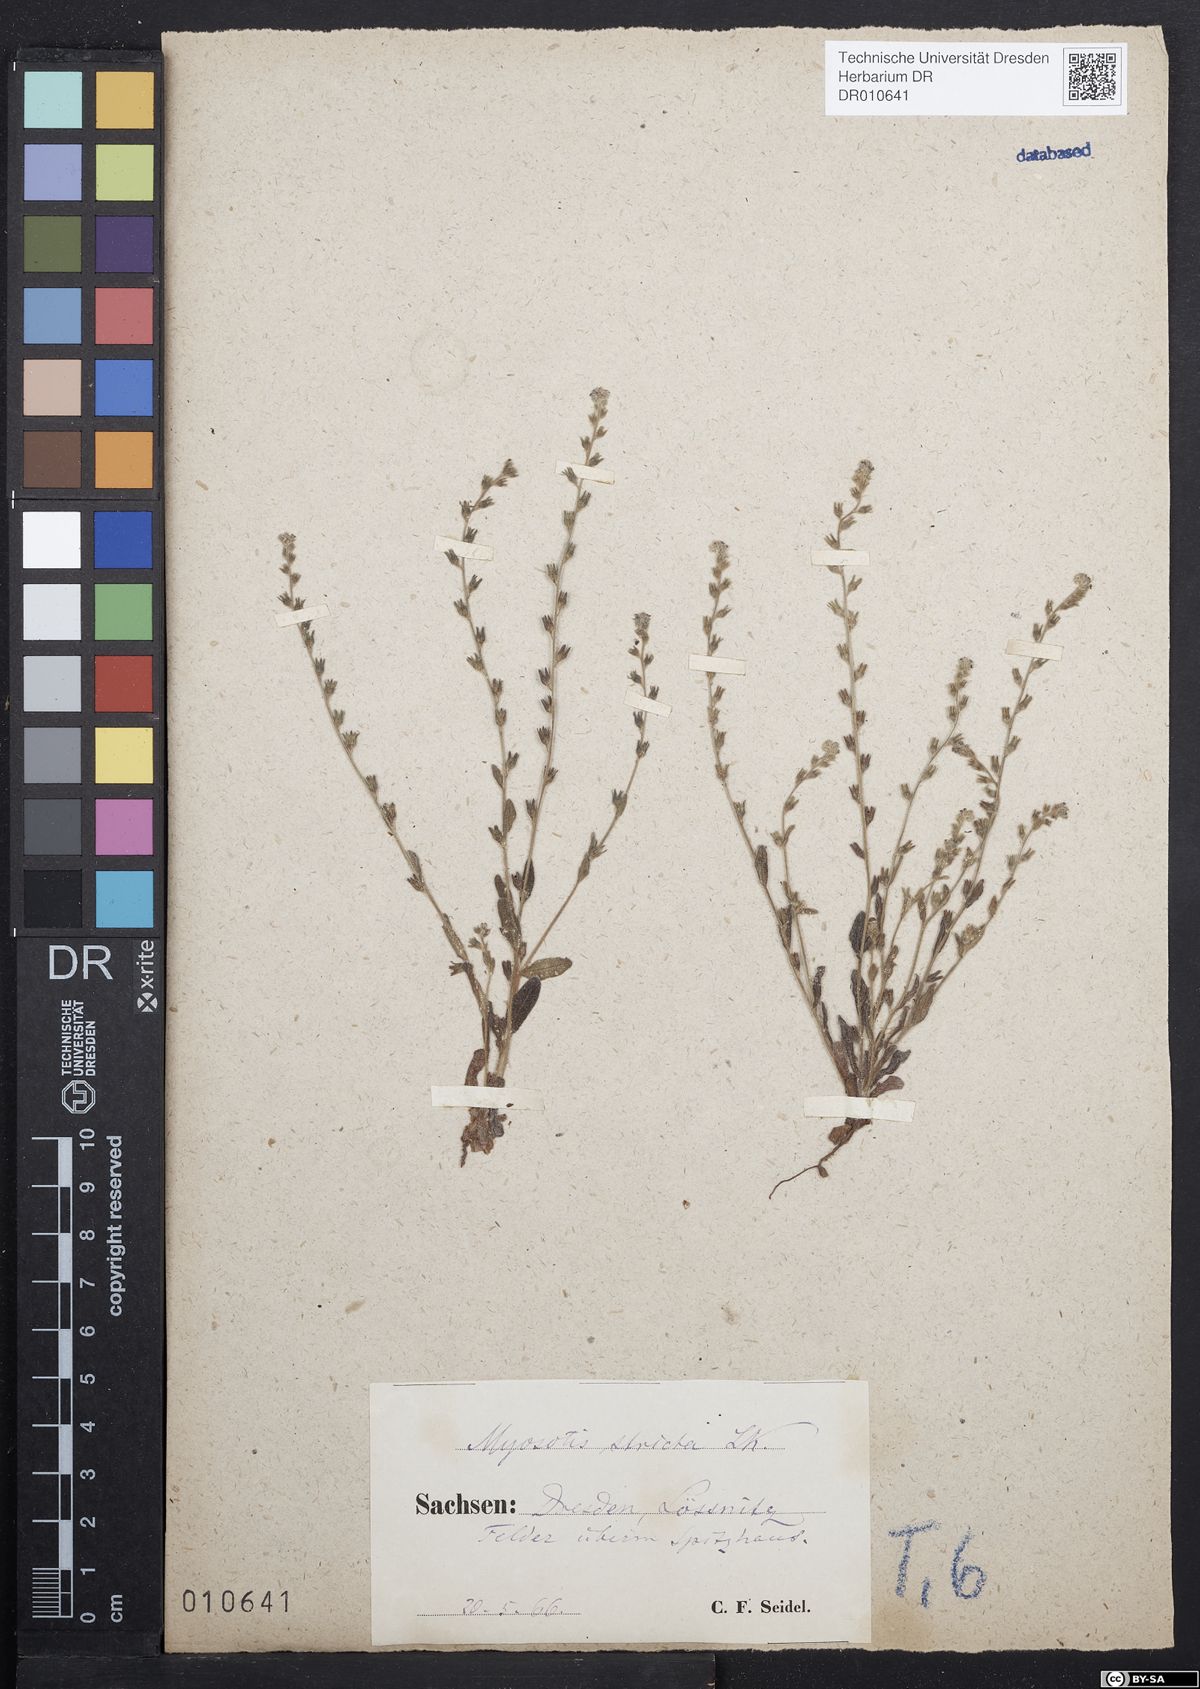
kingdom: Plantae
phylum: Tracheophyta
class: Magnoliopsida
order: Boraginales
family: Boraginaceae
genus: Myosotis
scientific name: Myosotis stricta
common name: Strict forget-me-not
